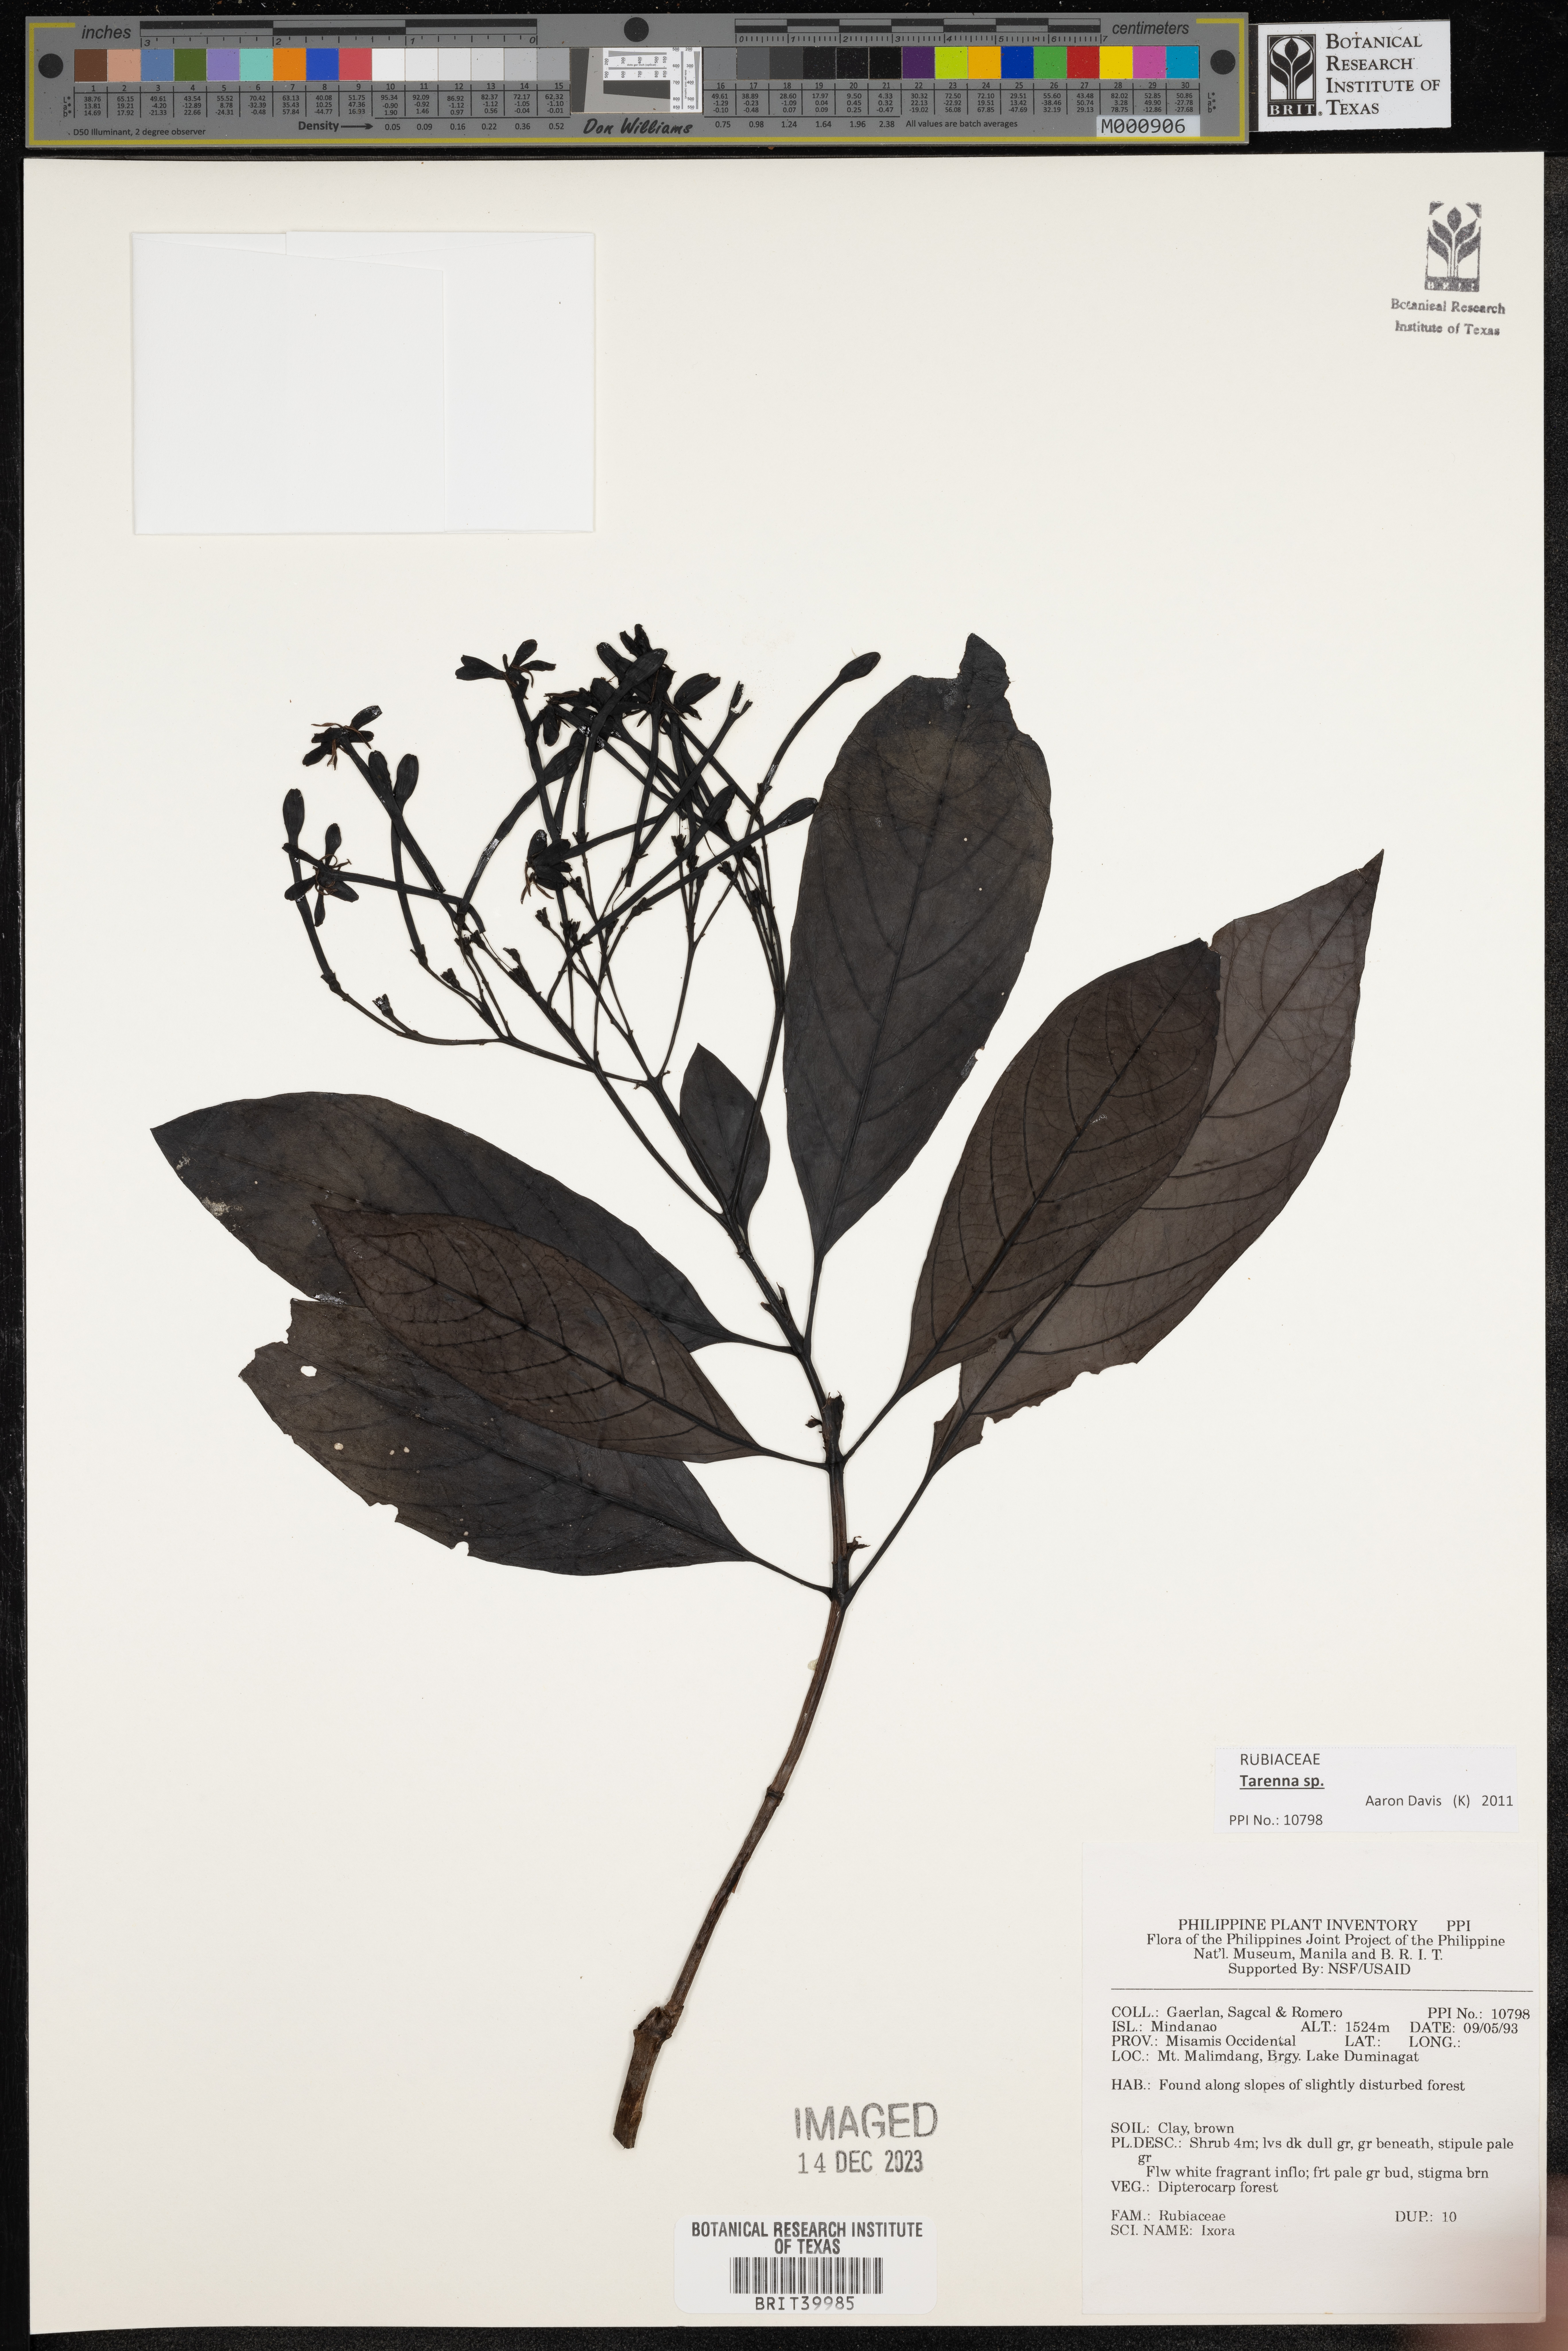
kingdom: Plantae
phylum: Tracheophyta
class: Magnoliopsida
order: Gentianales
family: Rubiaceae
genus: Ixora
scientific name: Ixora
